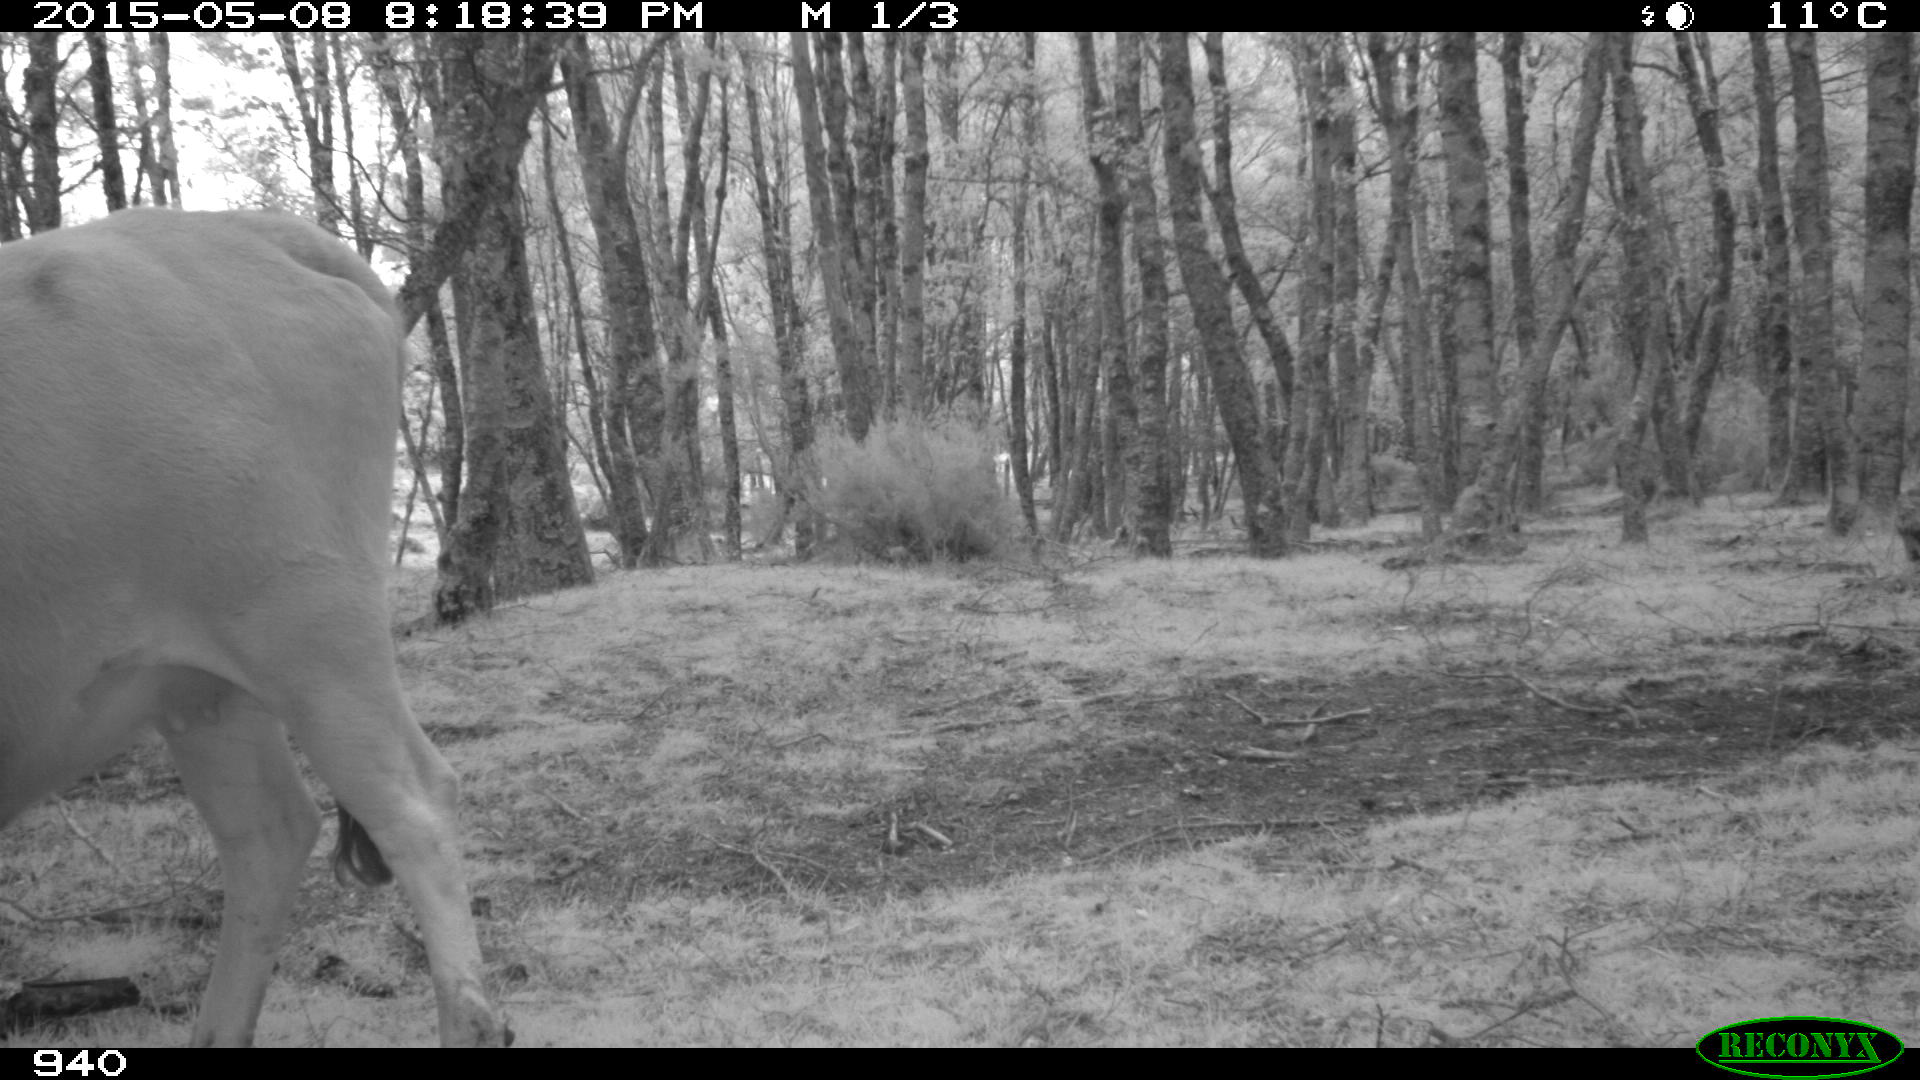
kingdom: Animalia
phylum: Chordata
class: Mammalia
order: Artiodactyla
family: Bovidae
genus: Bos
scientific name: Bos taurus
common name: Domesticated cattle
